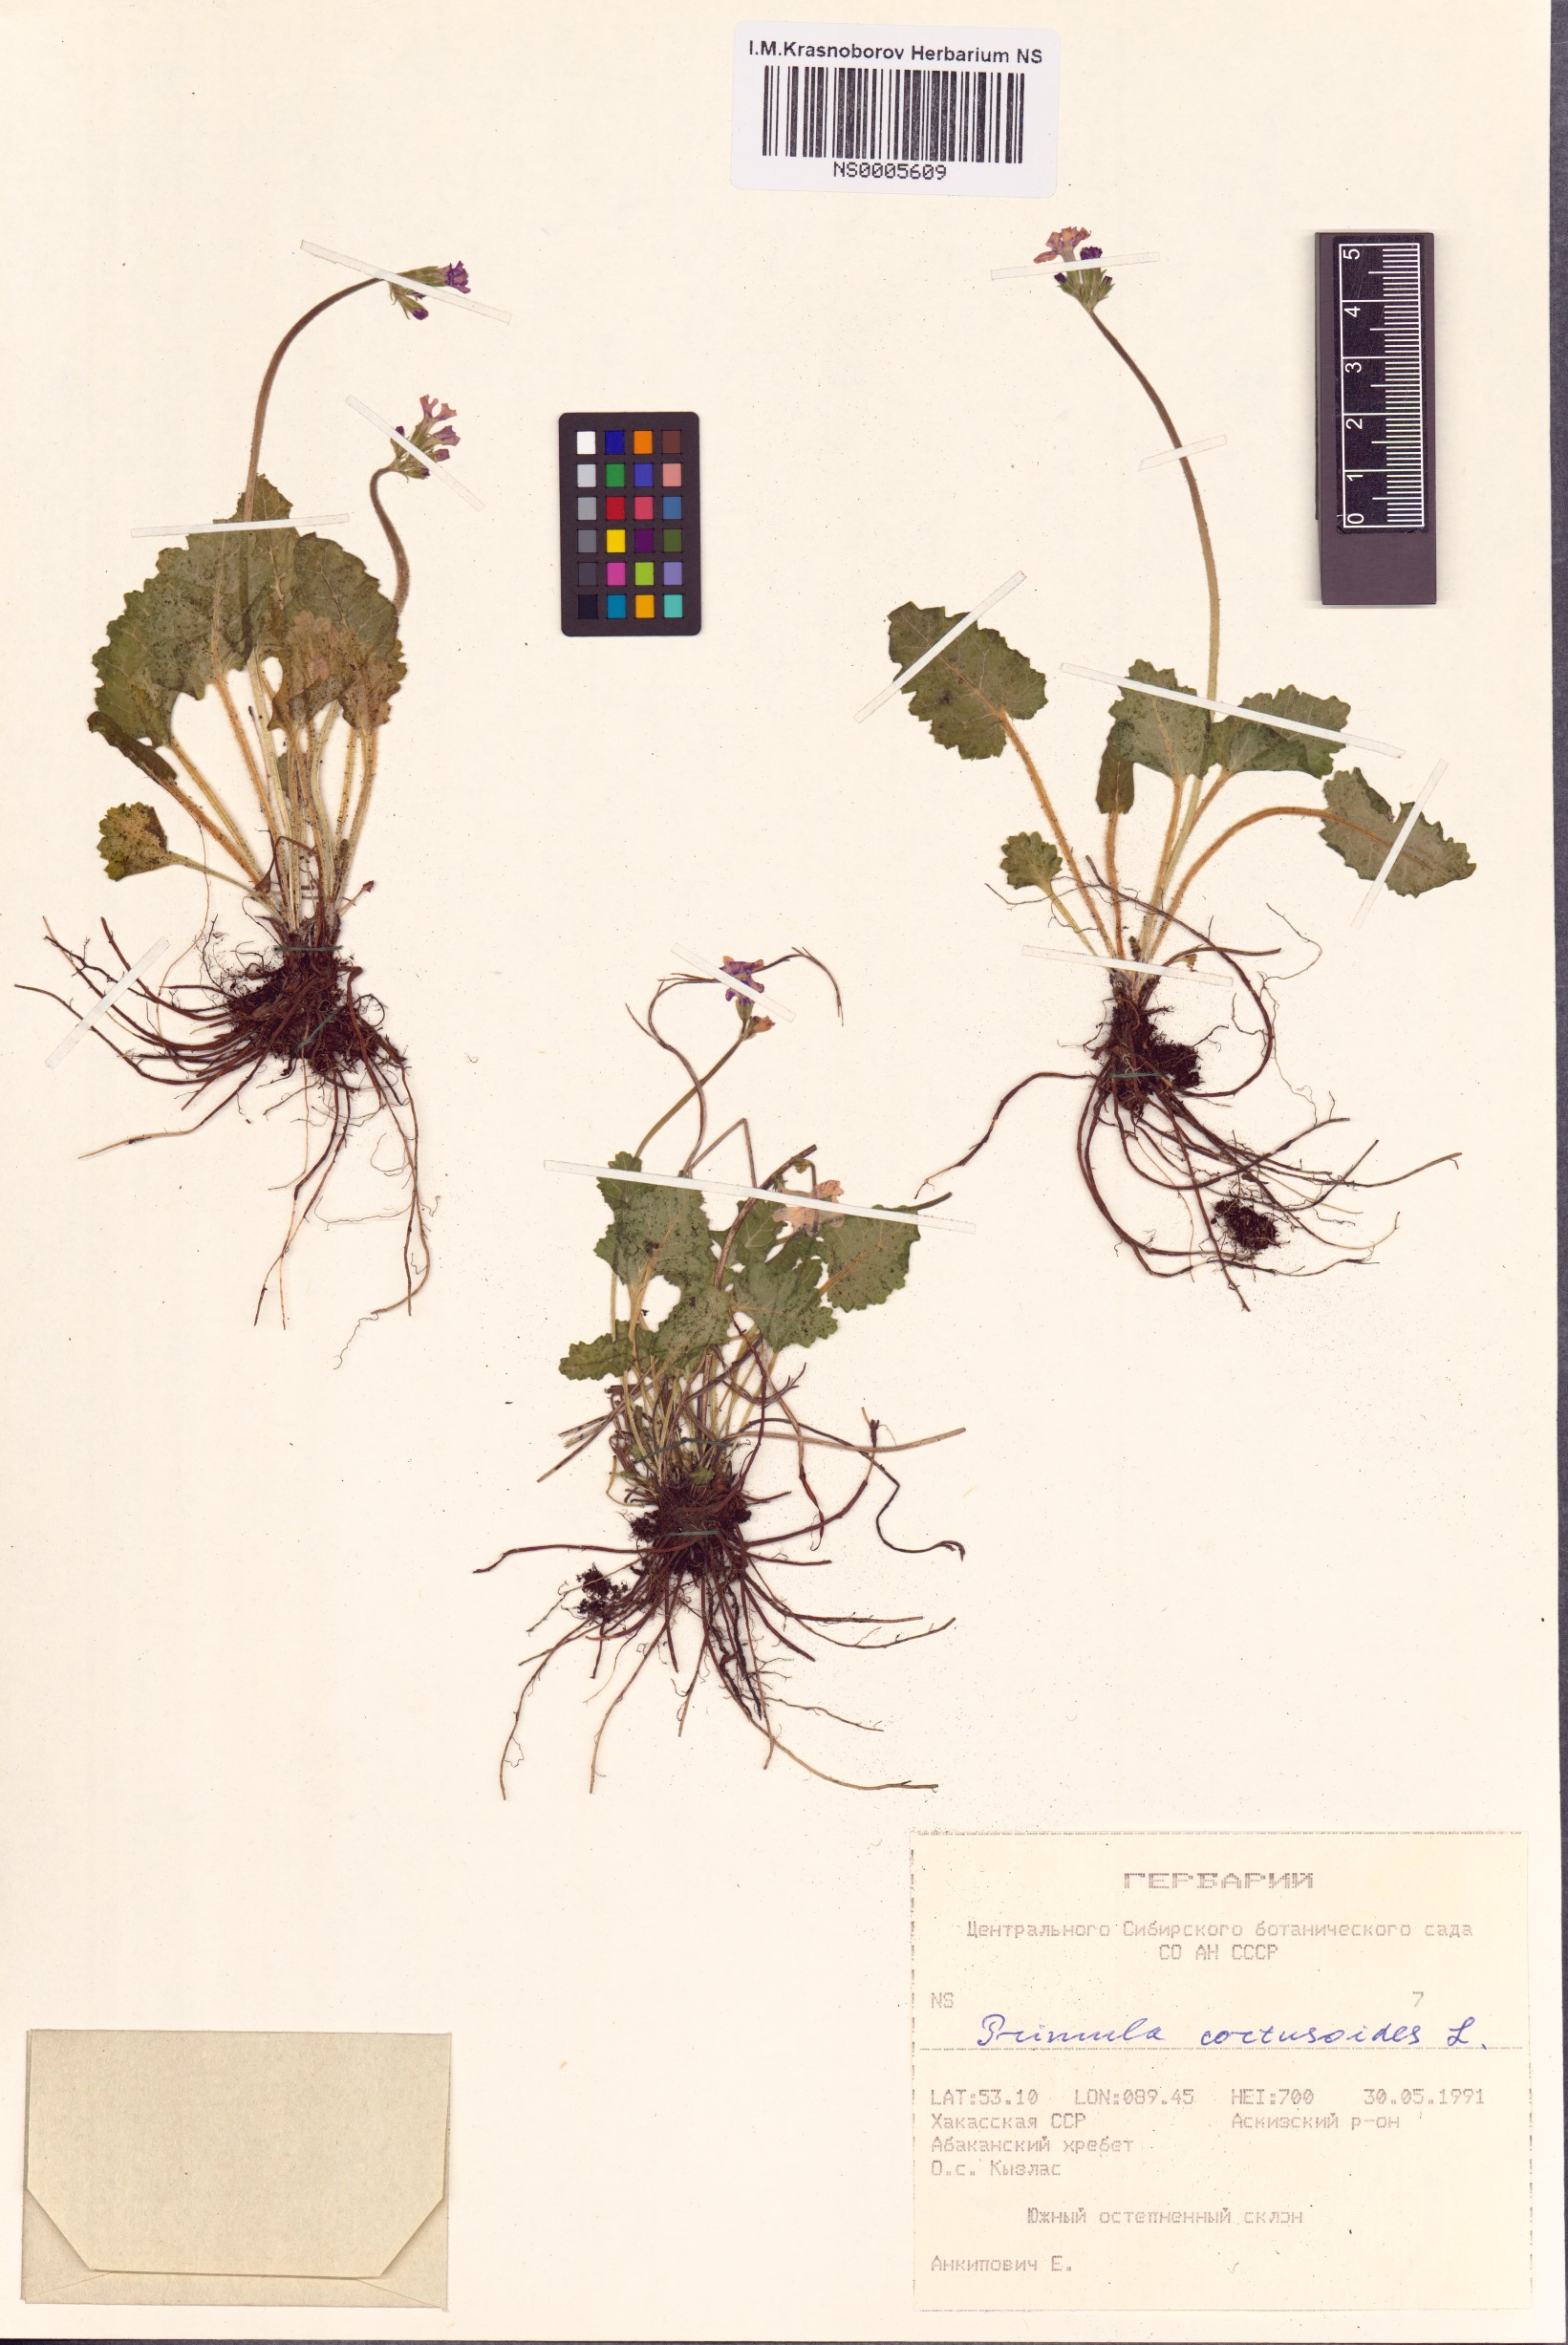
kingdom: Plantae
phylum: Tracheophyta
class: Magnoliopsida
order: Ericales
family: Primulaceae
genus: Primula
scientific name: Primula cortusoides
